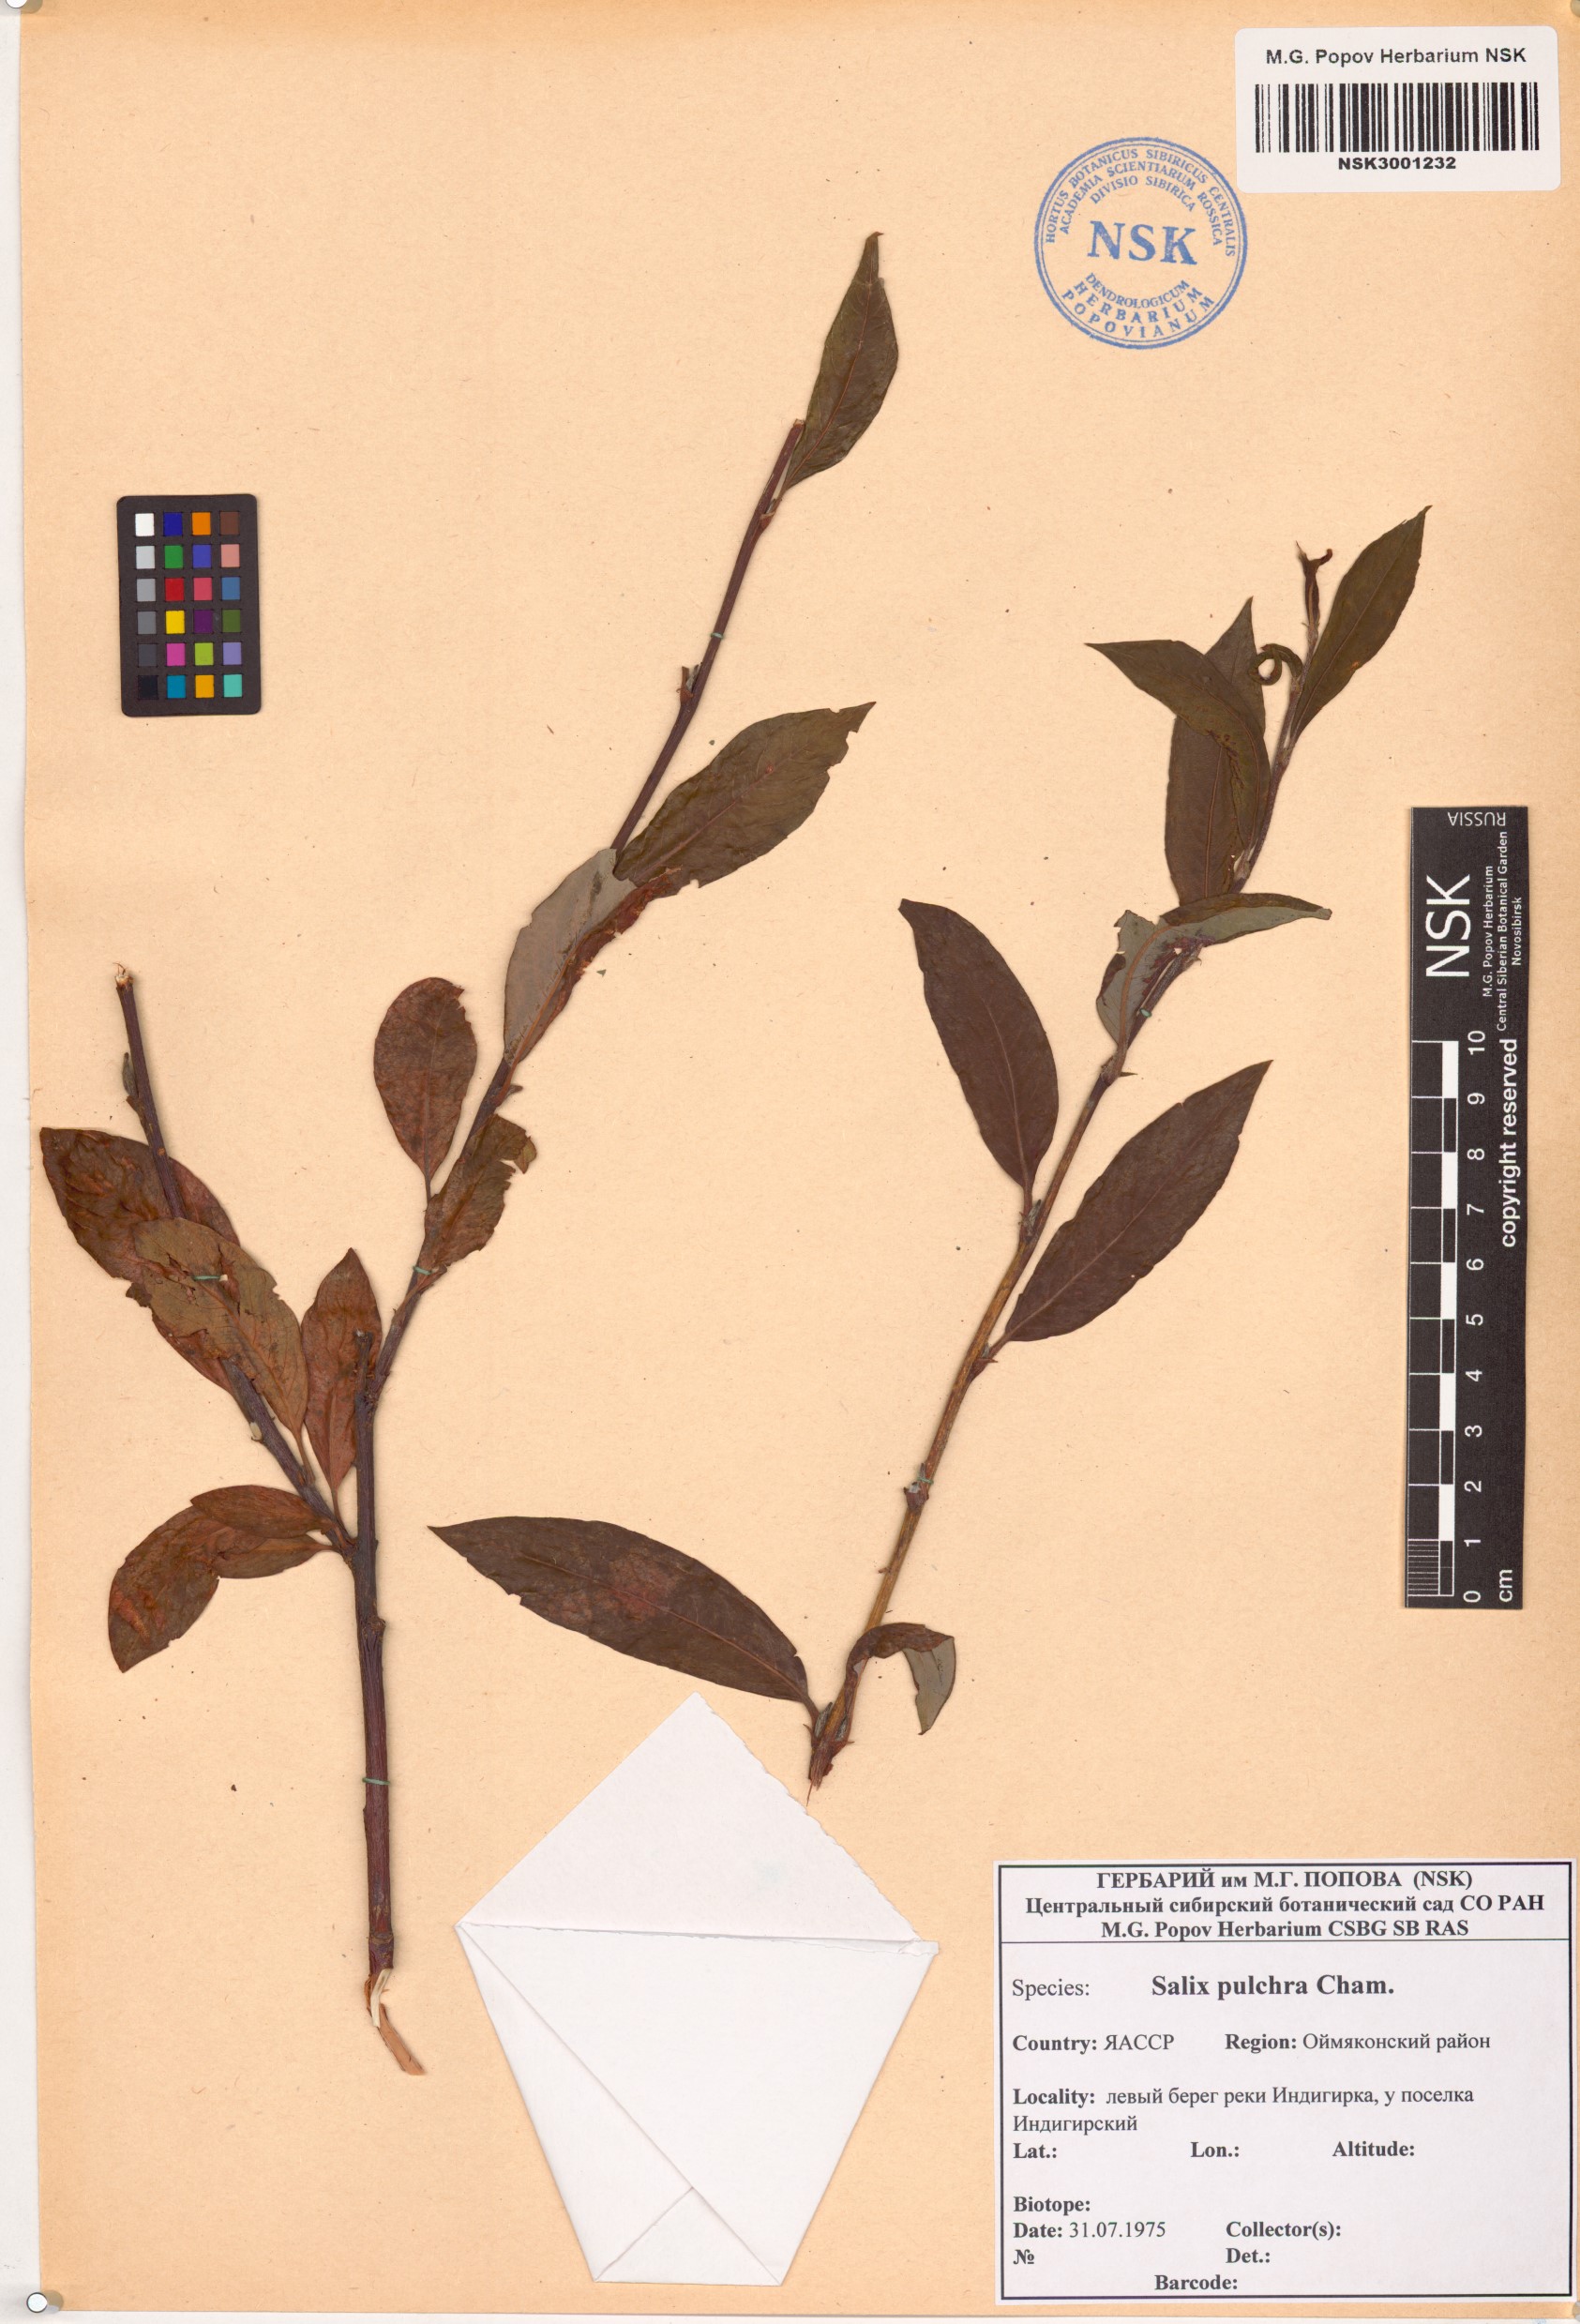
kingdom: Plantae
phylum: Tracheophyta
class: Magnoliopsida
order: Malpighiales
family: Salicaceae
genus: Salix
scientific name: Salix pulchra
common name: Diamond-leaved willow
